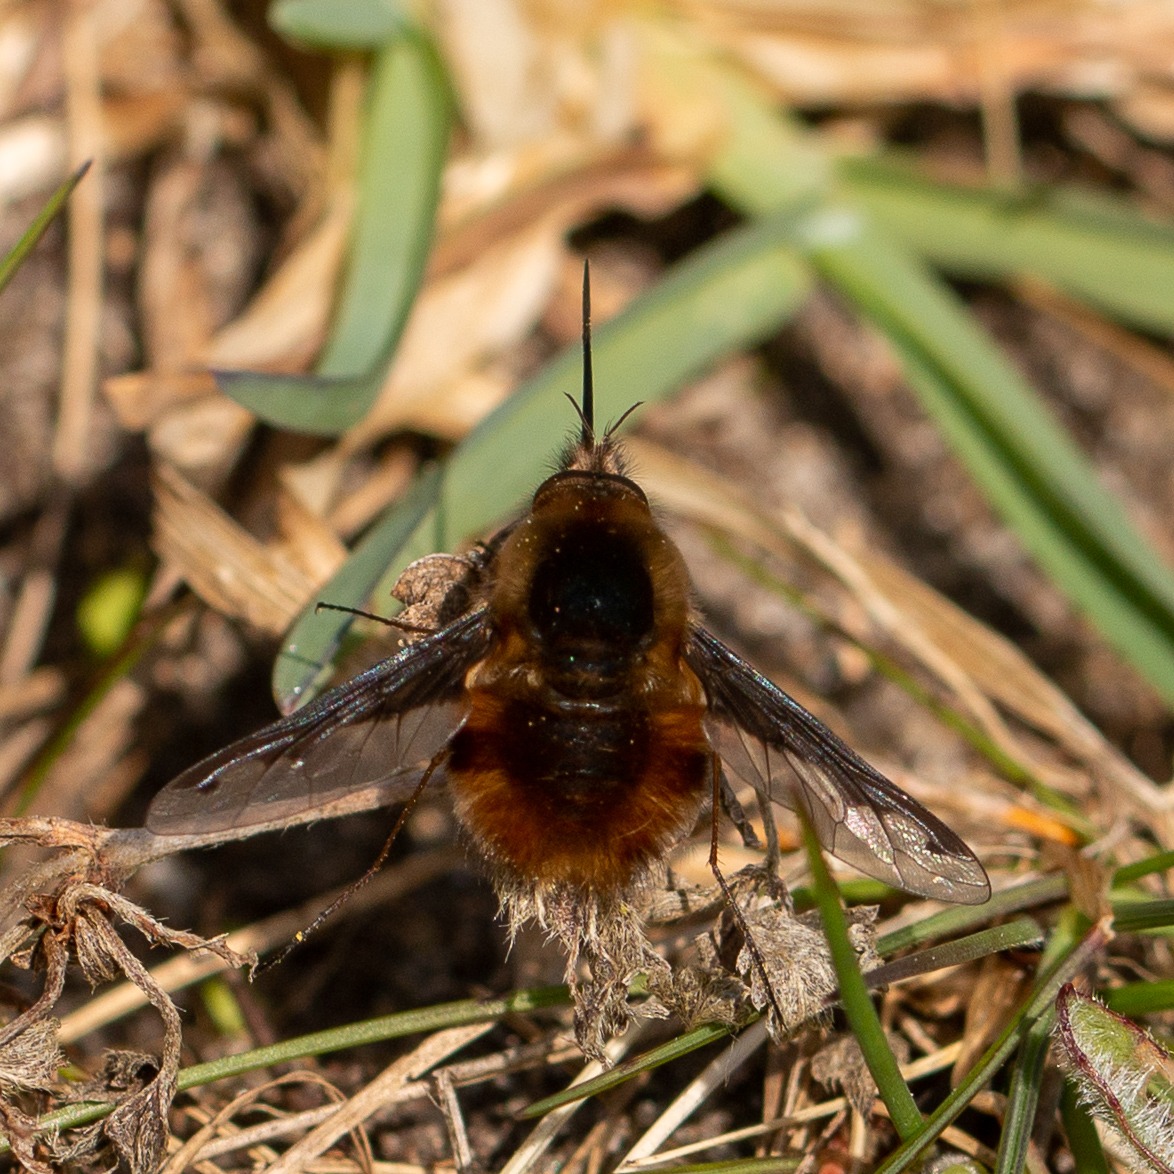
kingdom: Animalia
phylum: Arthropoda
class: Insecta
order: Diptera
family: Bombyliidae
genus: Bombylius
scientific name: Bombylius major
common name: Stor humleflue
